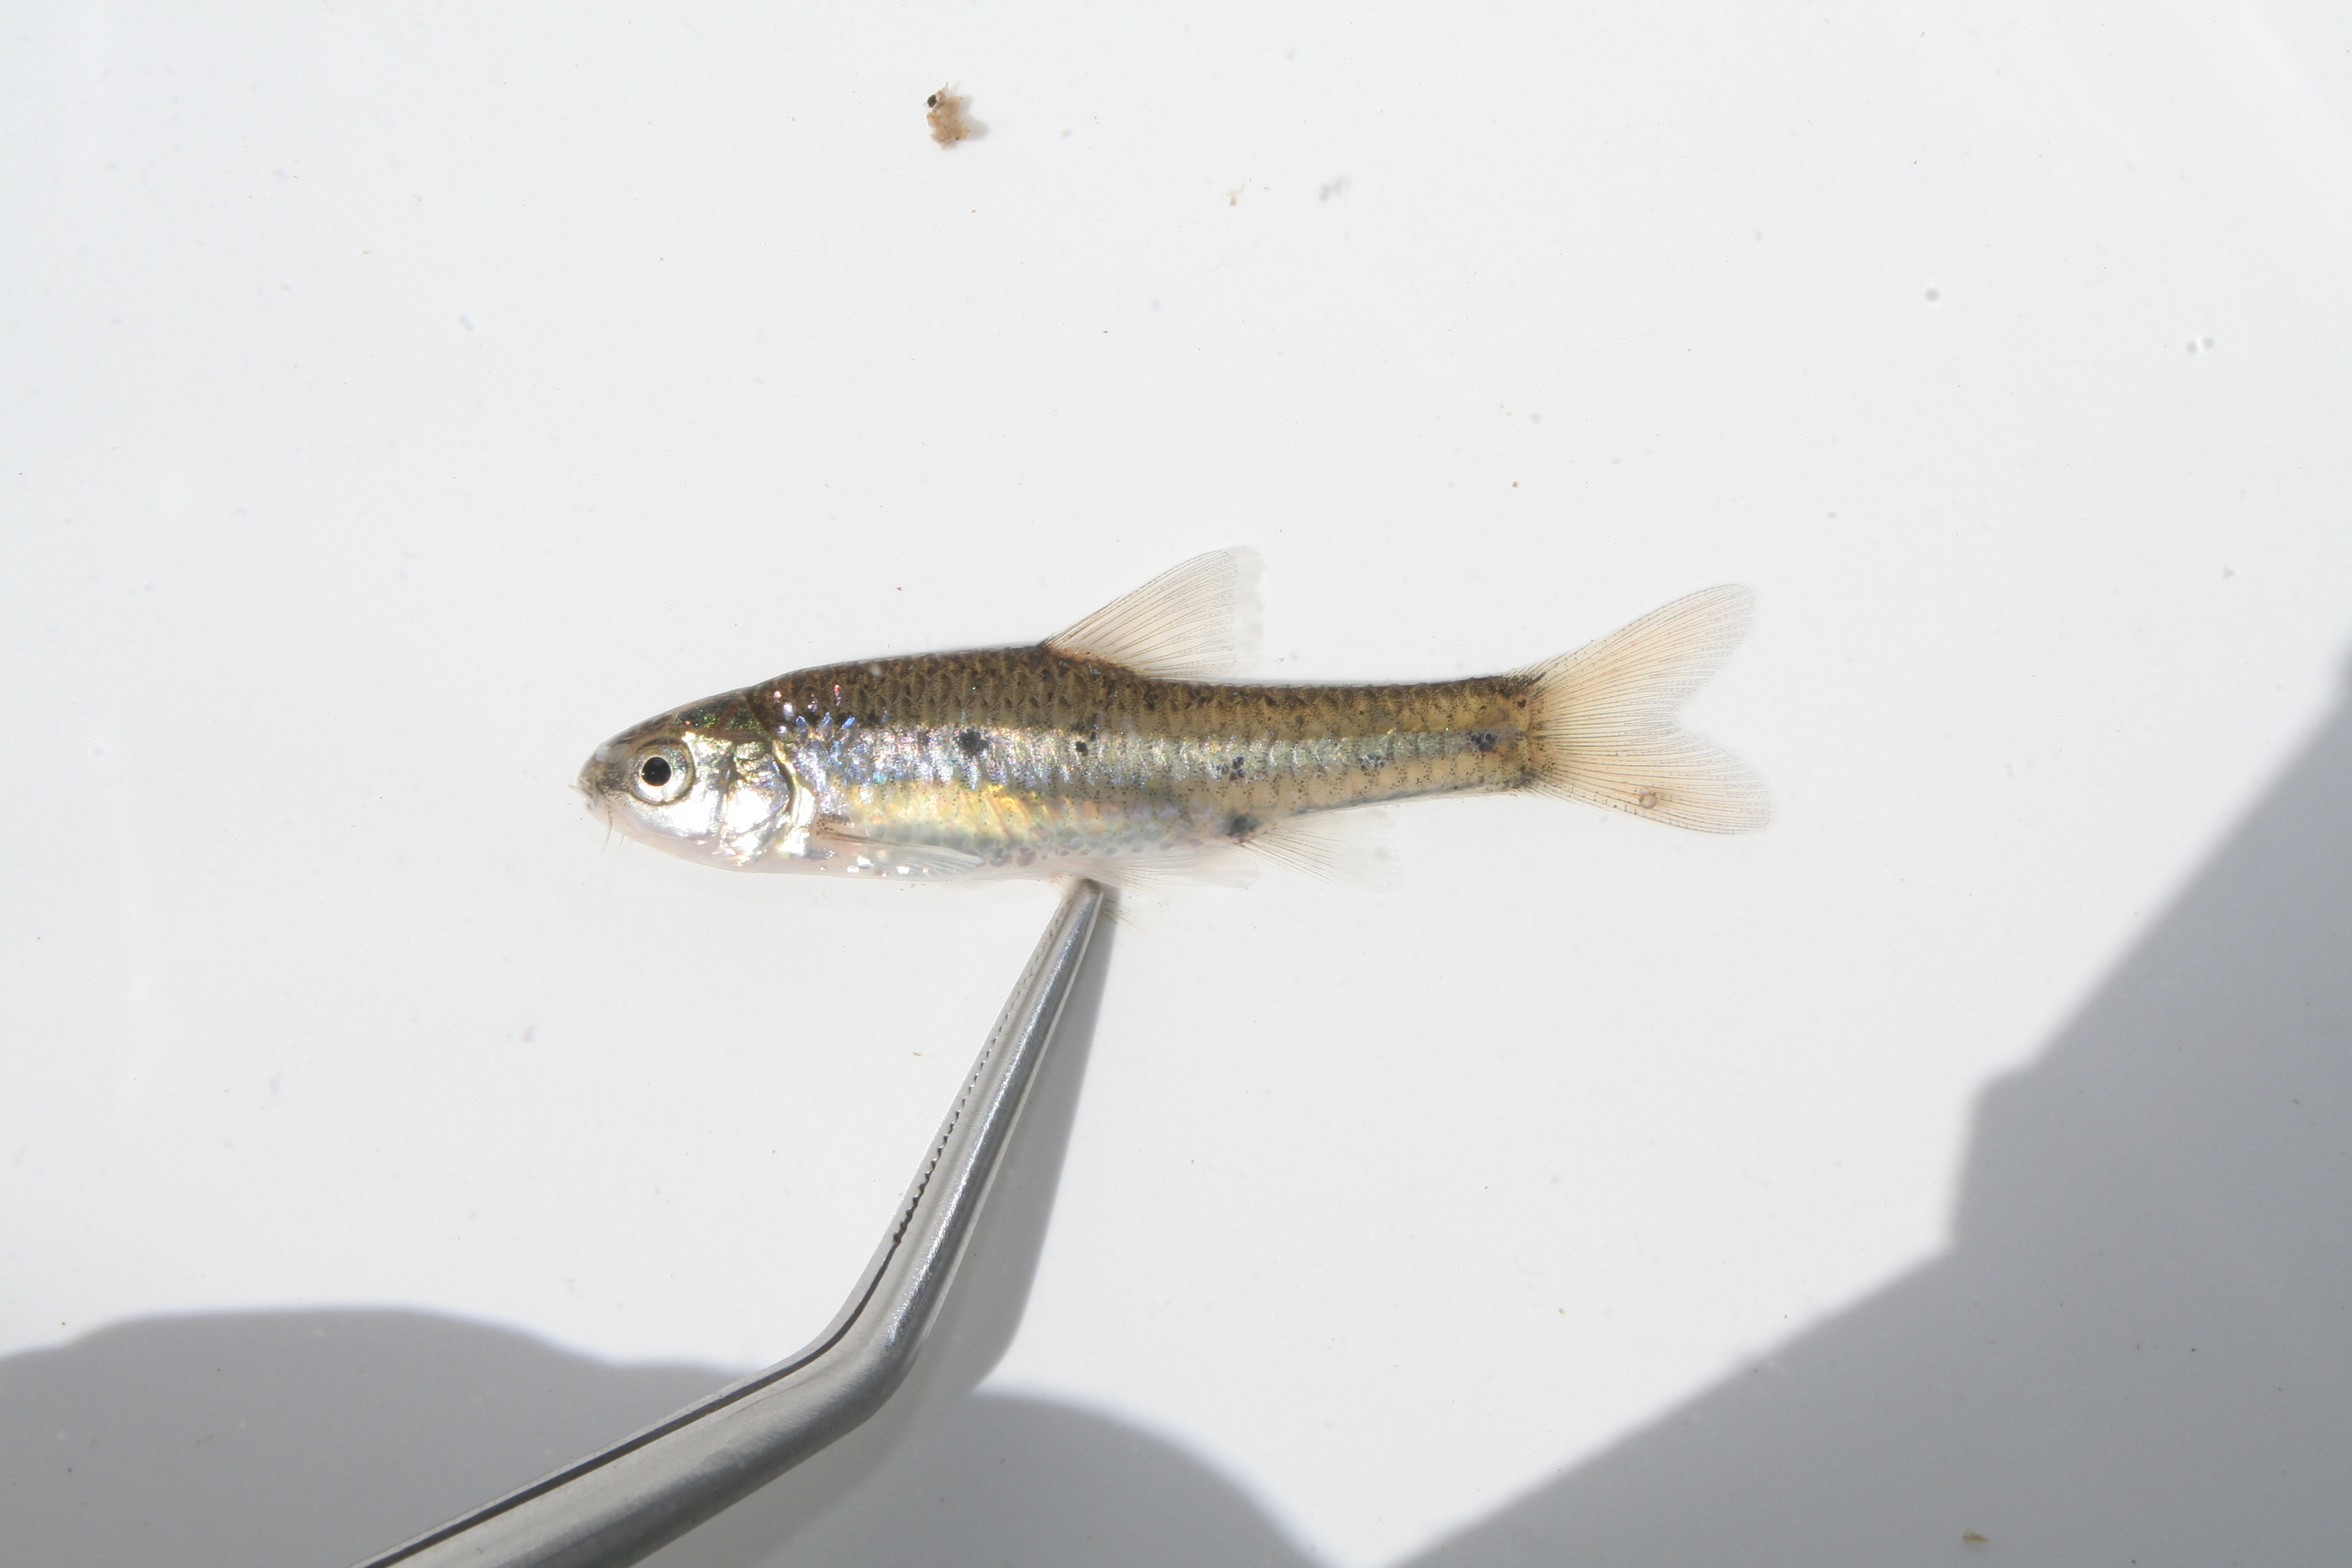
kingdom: Animalia
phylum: Chordata
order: Cypriniformes
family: Cyprinidae
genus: Barbus
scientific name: Barbus
